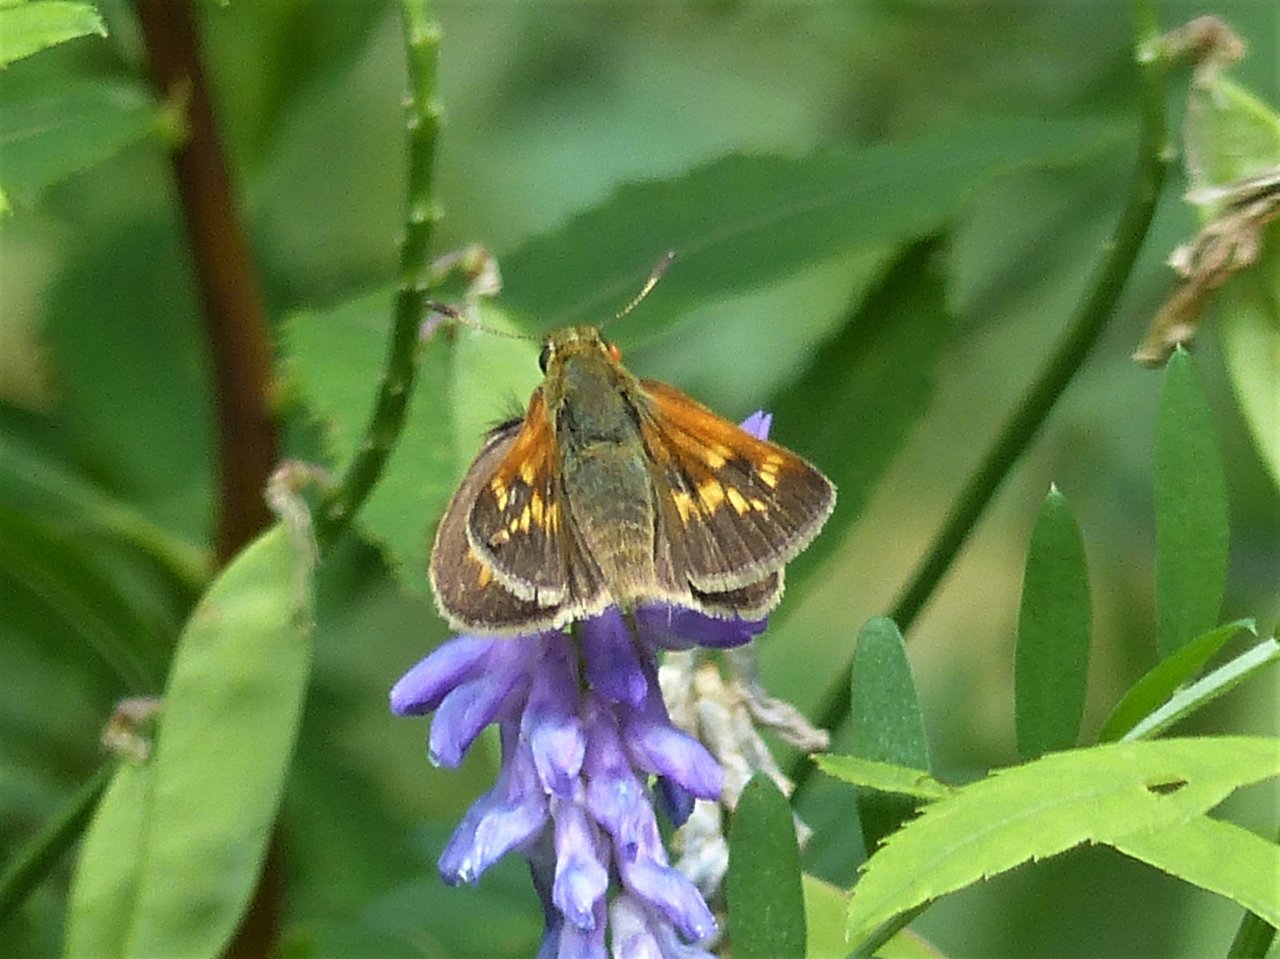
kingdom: Animalia
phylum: Arthropoda
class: Insecta
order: Lepidoptera
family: Hesperiidae
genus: Polites
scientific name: Polites
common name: Long Dash Skipper
